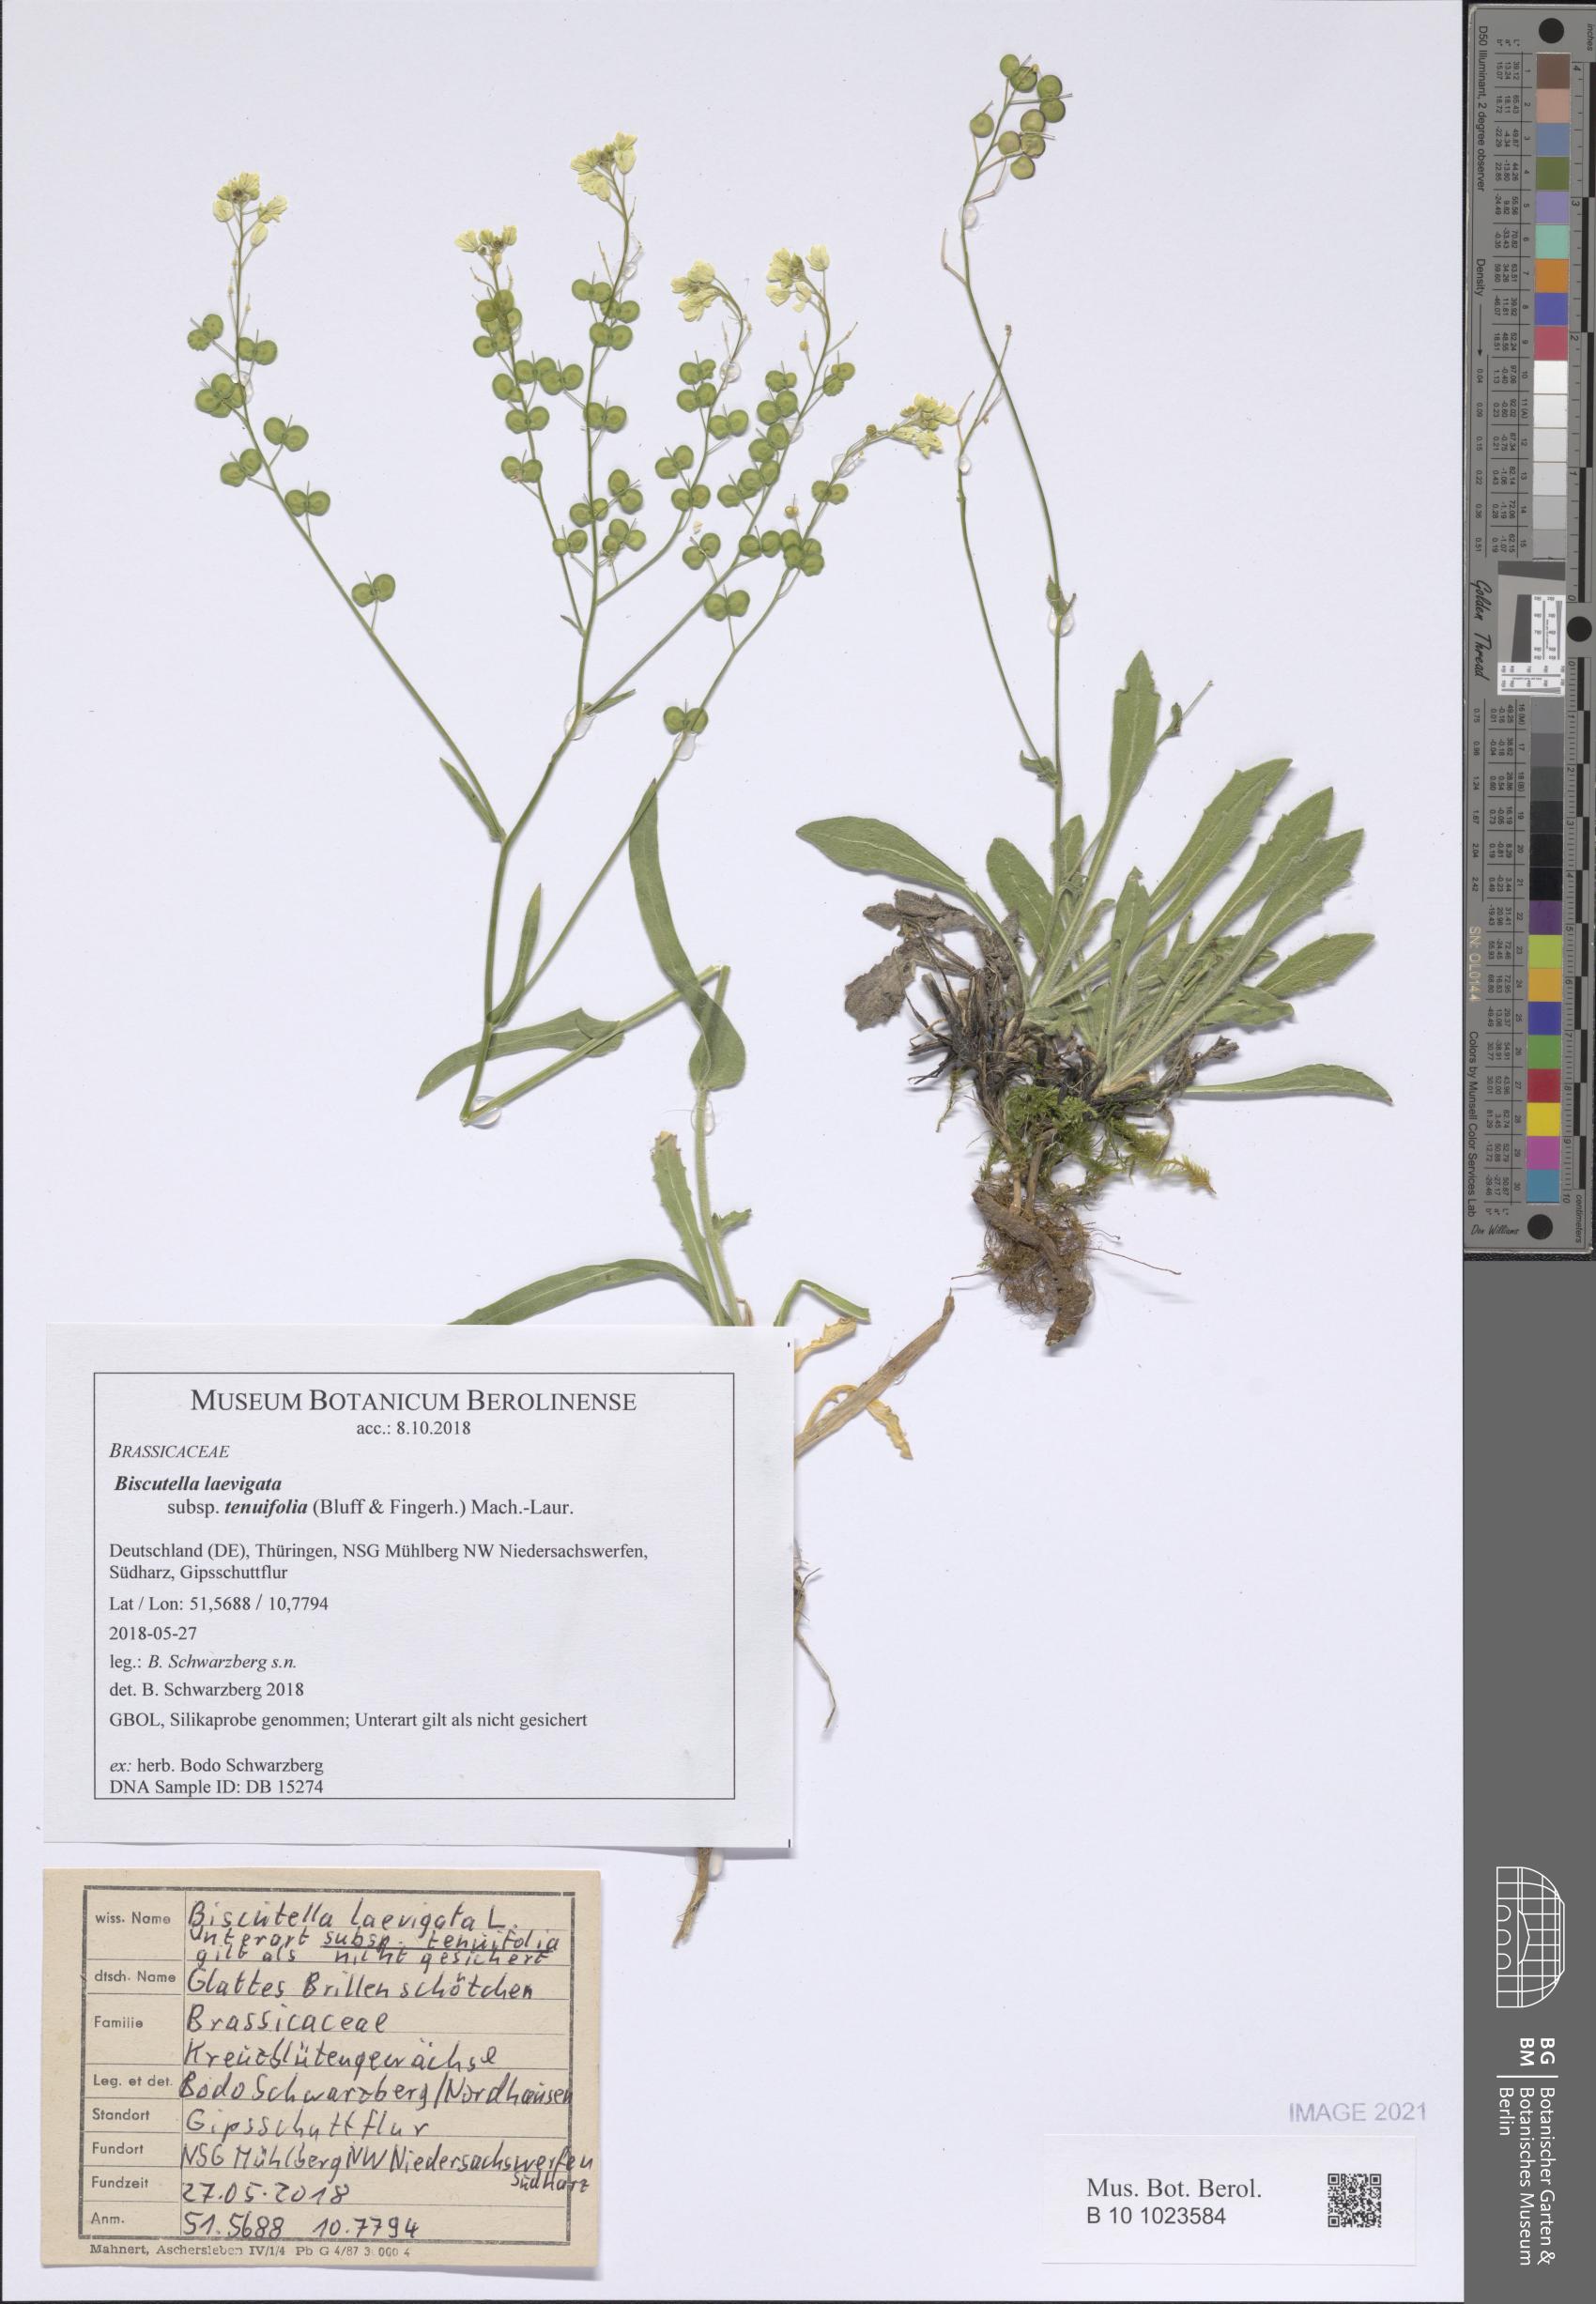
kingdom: Plantae
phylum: Tracheophyta
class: Magnoliopsida
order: Brassicales
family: Brassicaceae
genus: Biscutella
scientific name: Biscutella laevigata
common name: Buckler mustard
